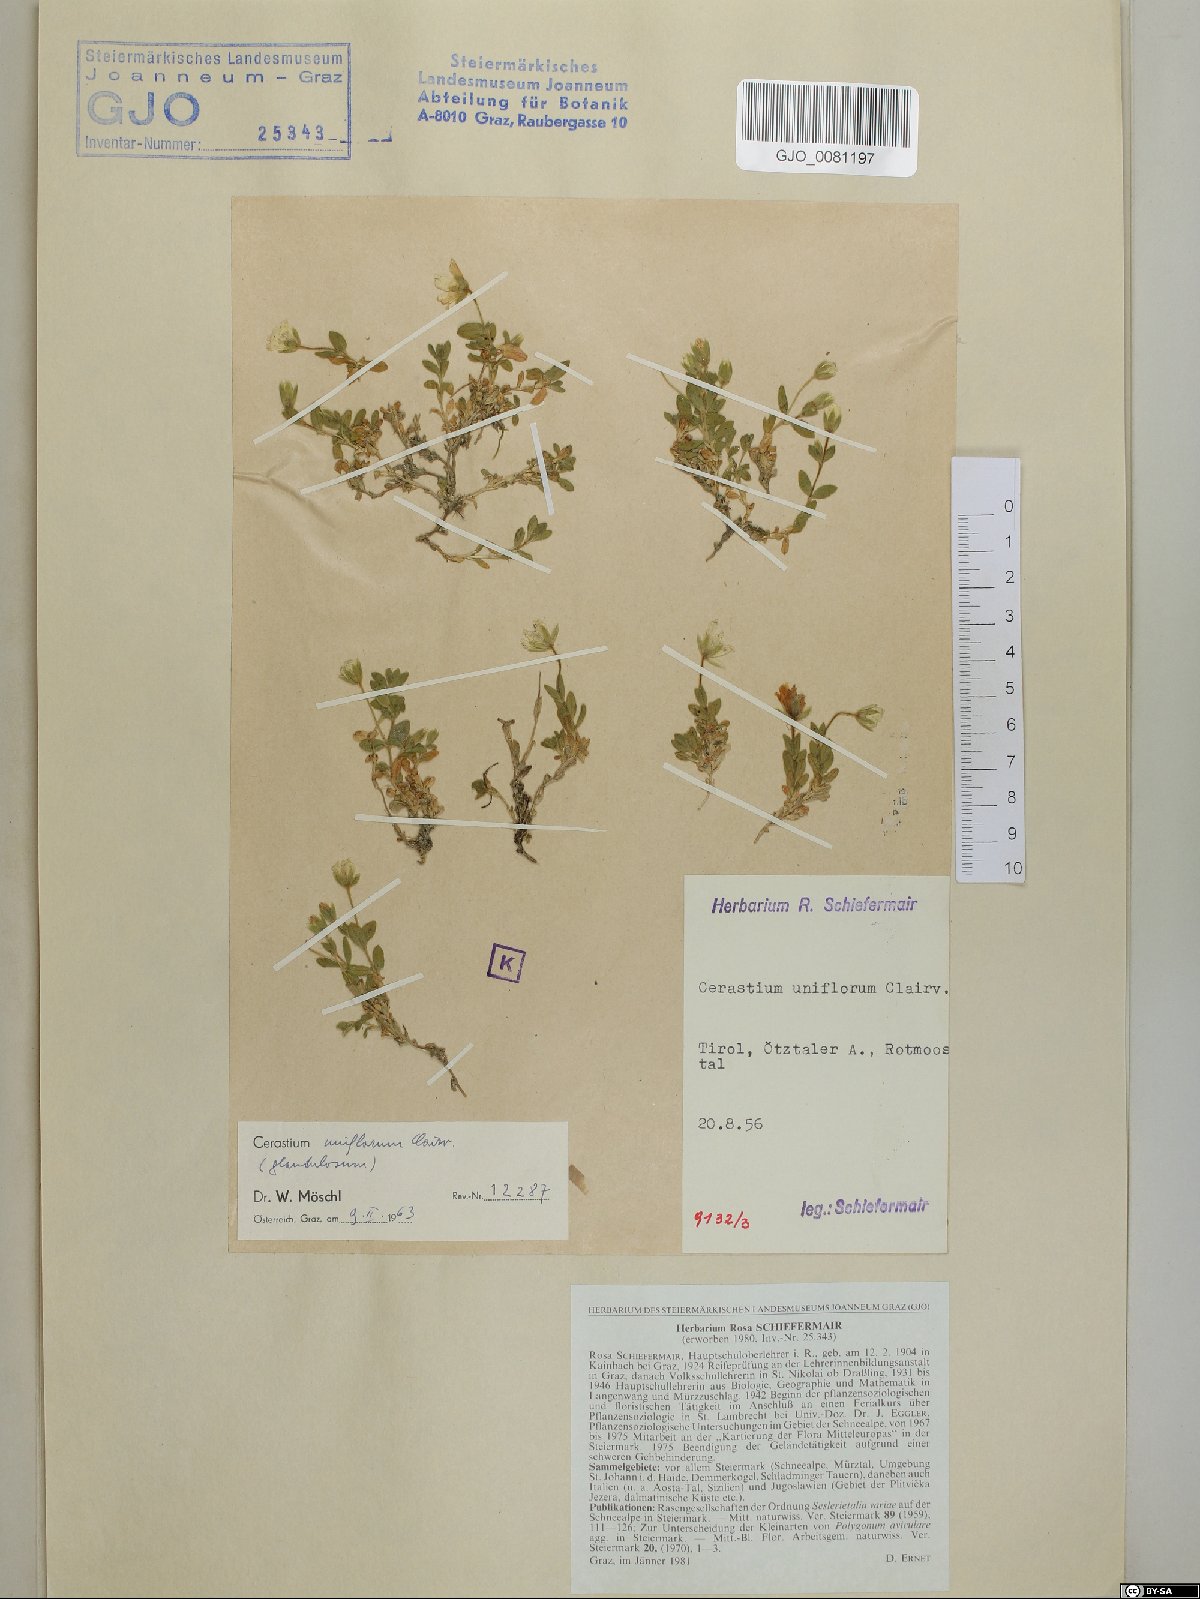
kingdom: Plantae
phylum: Tracheophyta
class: Magnoliopsida
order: Caryophyllales
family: Caryophyllaceae
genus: Cerastium
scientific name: Cerastium uniflorum
